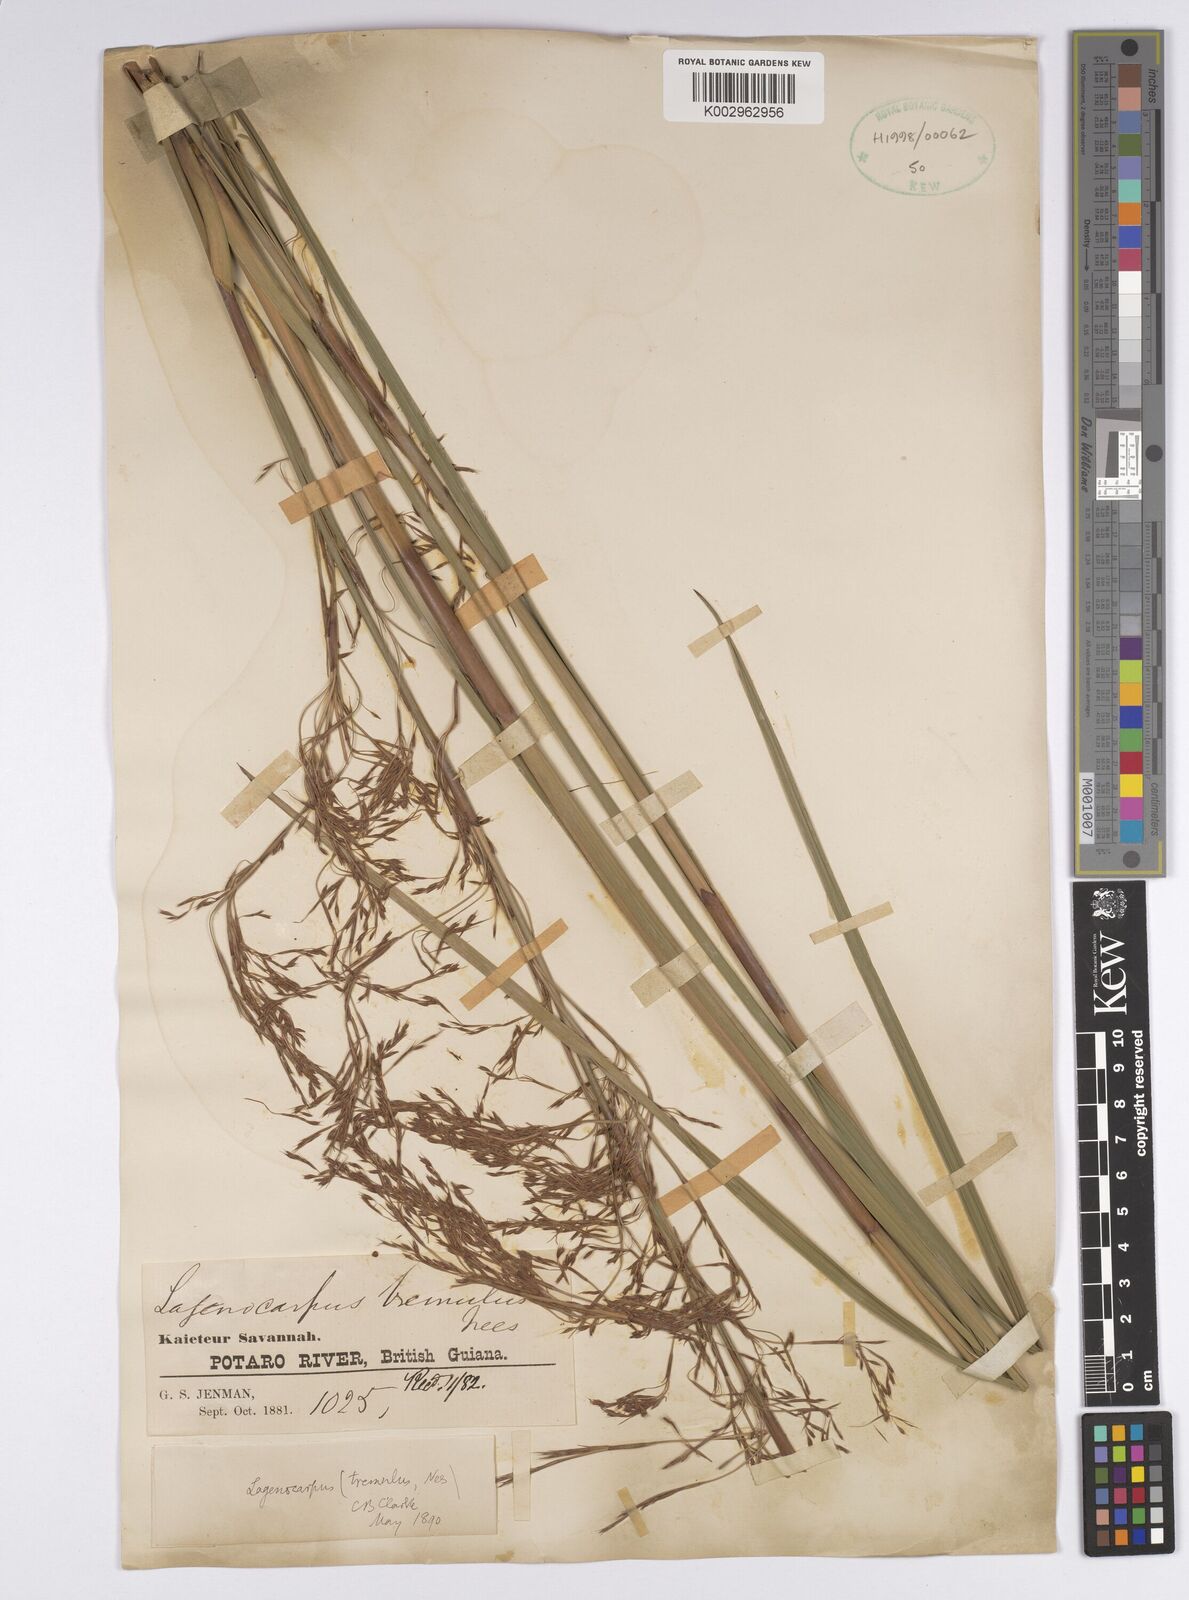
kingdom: Plantae
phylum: Tracheophyta
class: Liliopsida
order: Poales
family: Cyperaceae
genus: Lagenocarpus
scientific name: Lagenocarpus rigidus
